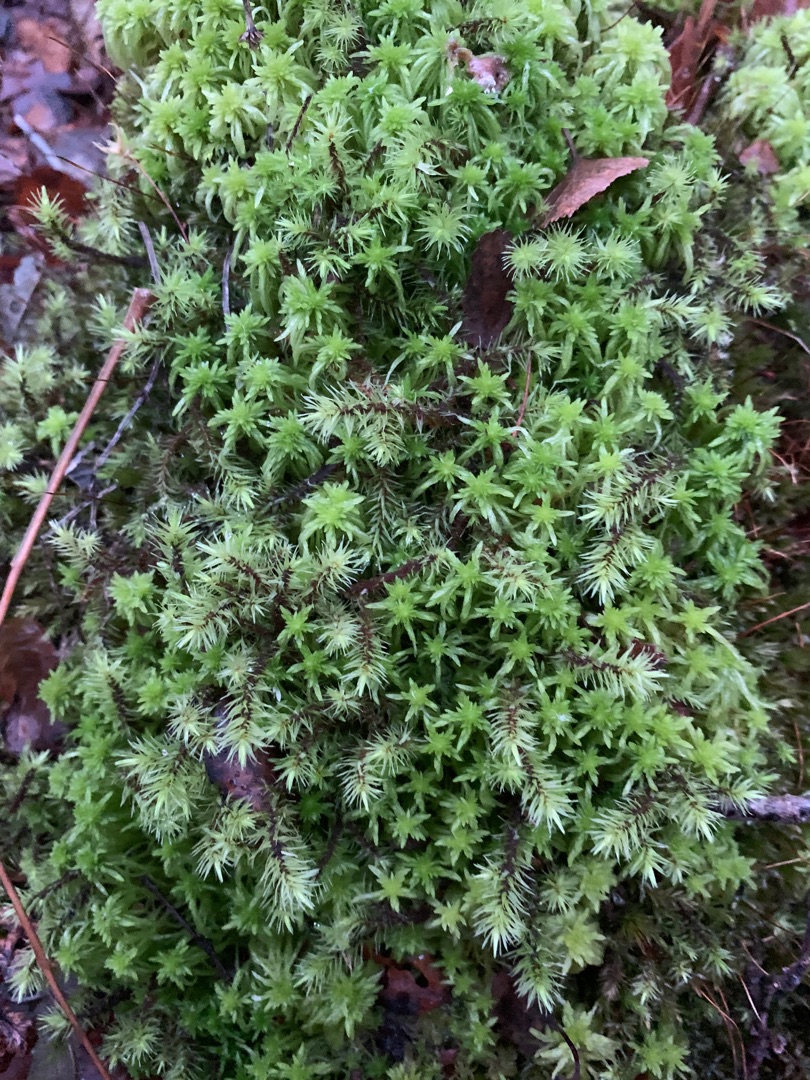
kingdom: Plantae
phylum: Bryophyta
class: Bryopsida
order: Aulacomniales
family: Aulacomniaceae
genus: Aulacomnium
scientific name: Aulacomnium palustre
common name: Almindelig filtmos
